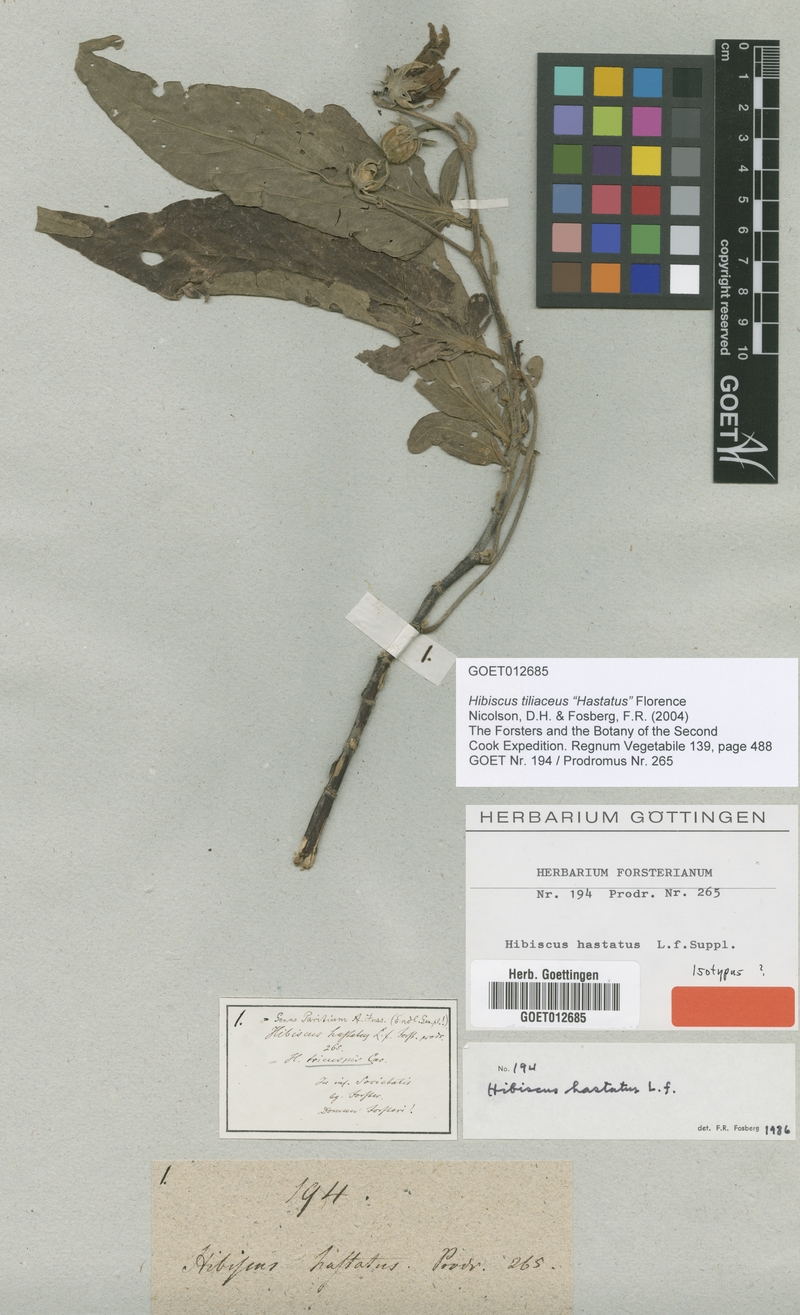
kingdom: Plantae
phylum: Tracheophyta
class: Magnoliopsida
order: Malvales
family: Malvaceae
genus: Talipariti
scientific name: Talipariti tiliaceum
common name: Sea hibiscus
